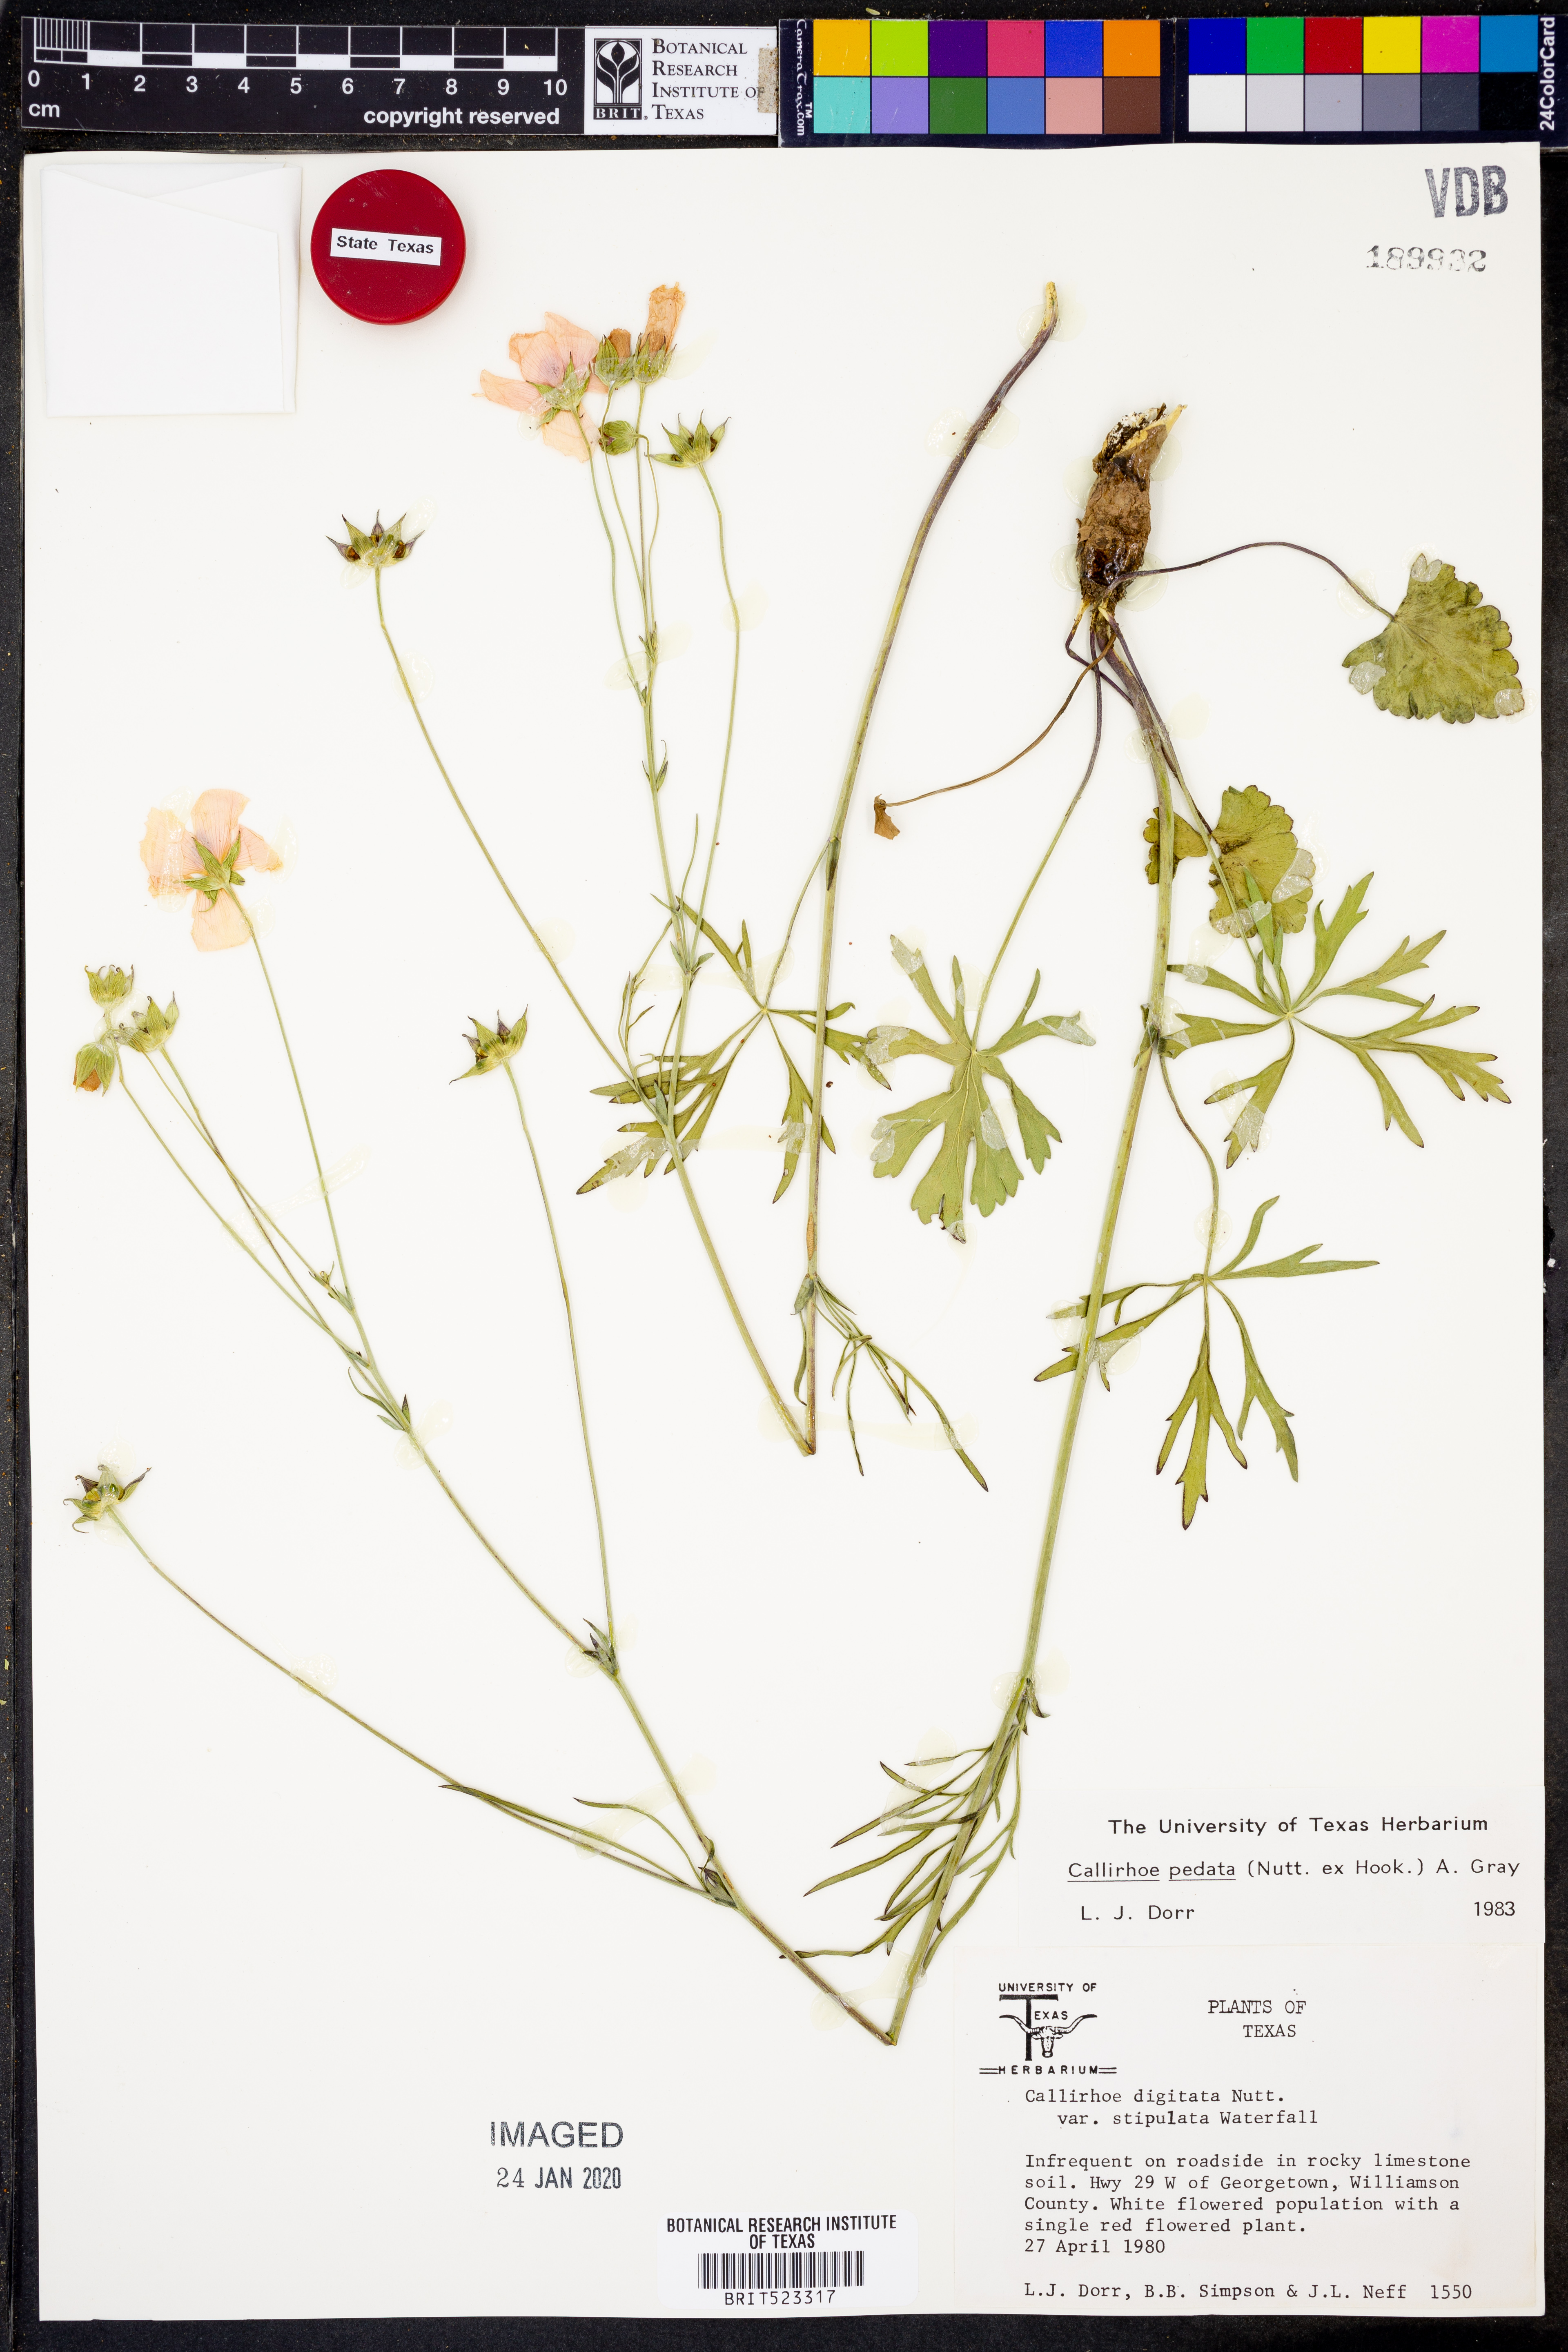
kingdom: Plantae
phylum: Tracheophyta
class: Magnoliopsida
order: Malvales
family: Malvaceae
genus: Callirhoe
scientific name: Callirhoe pedata
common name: Finger poppy-mallow
